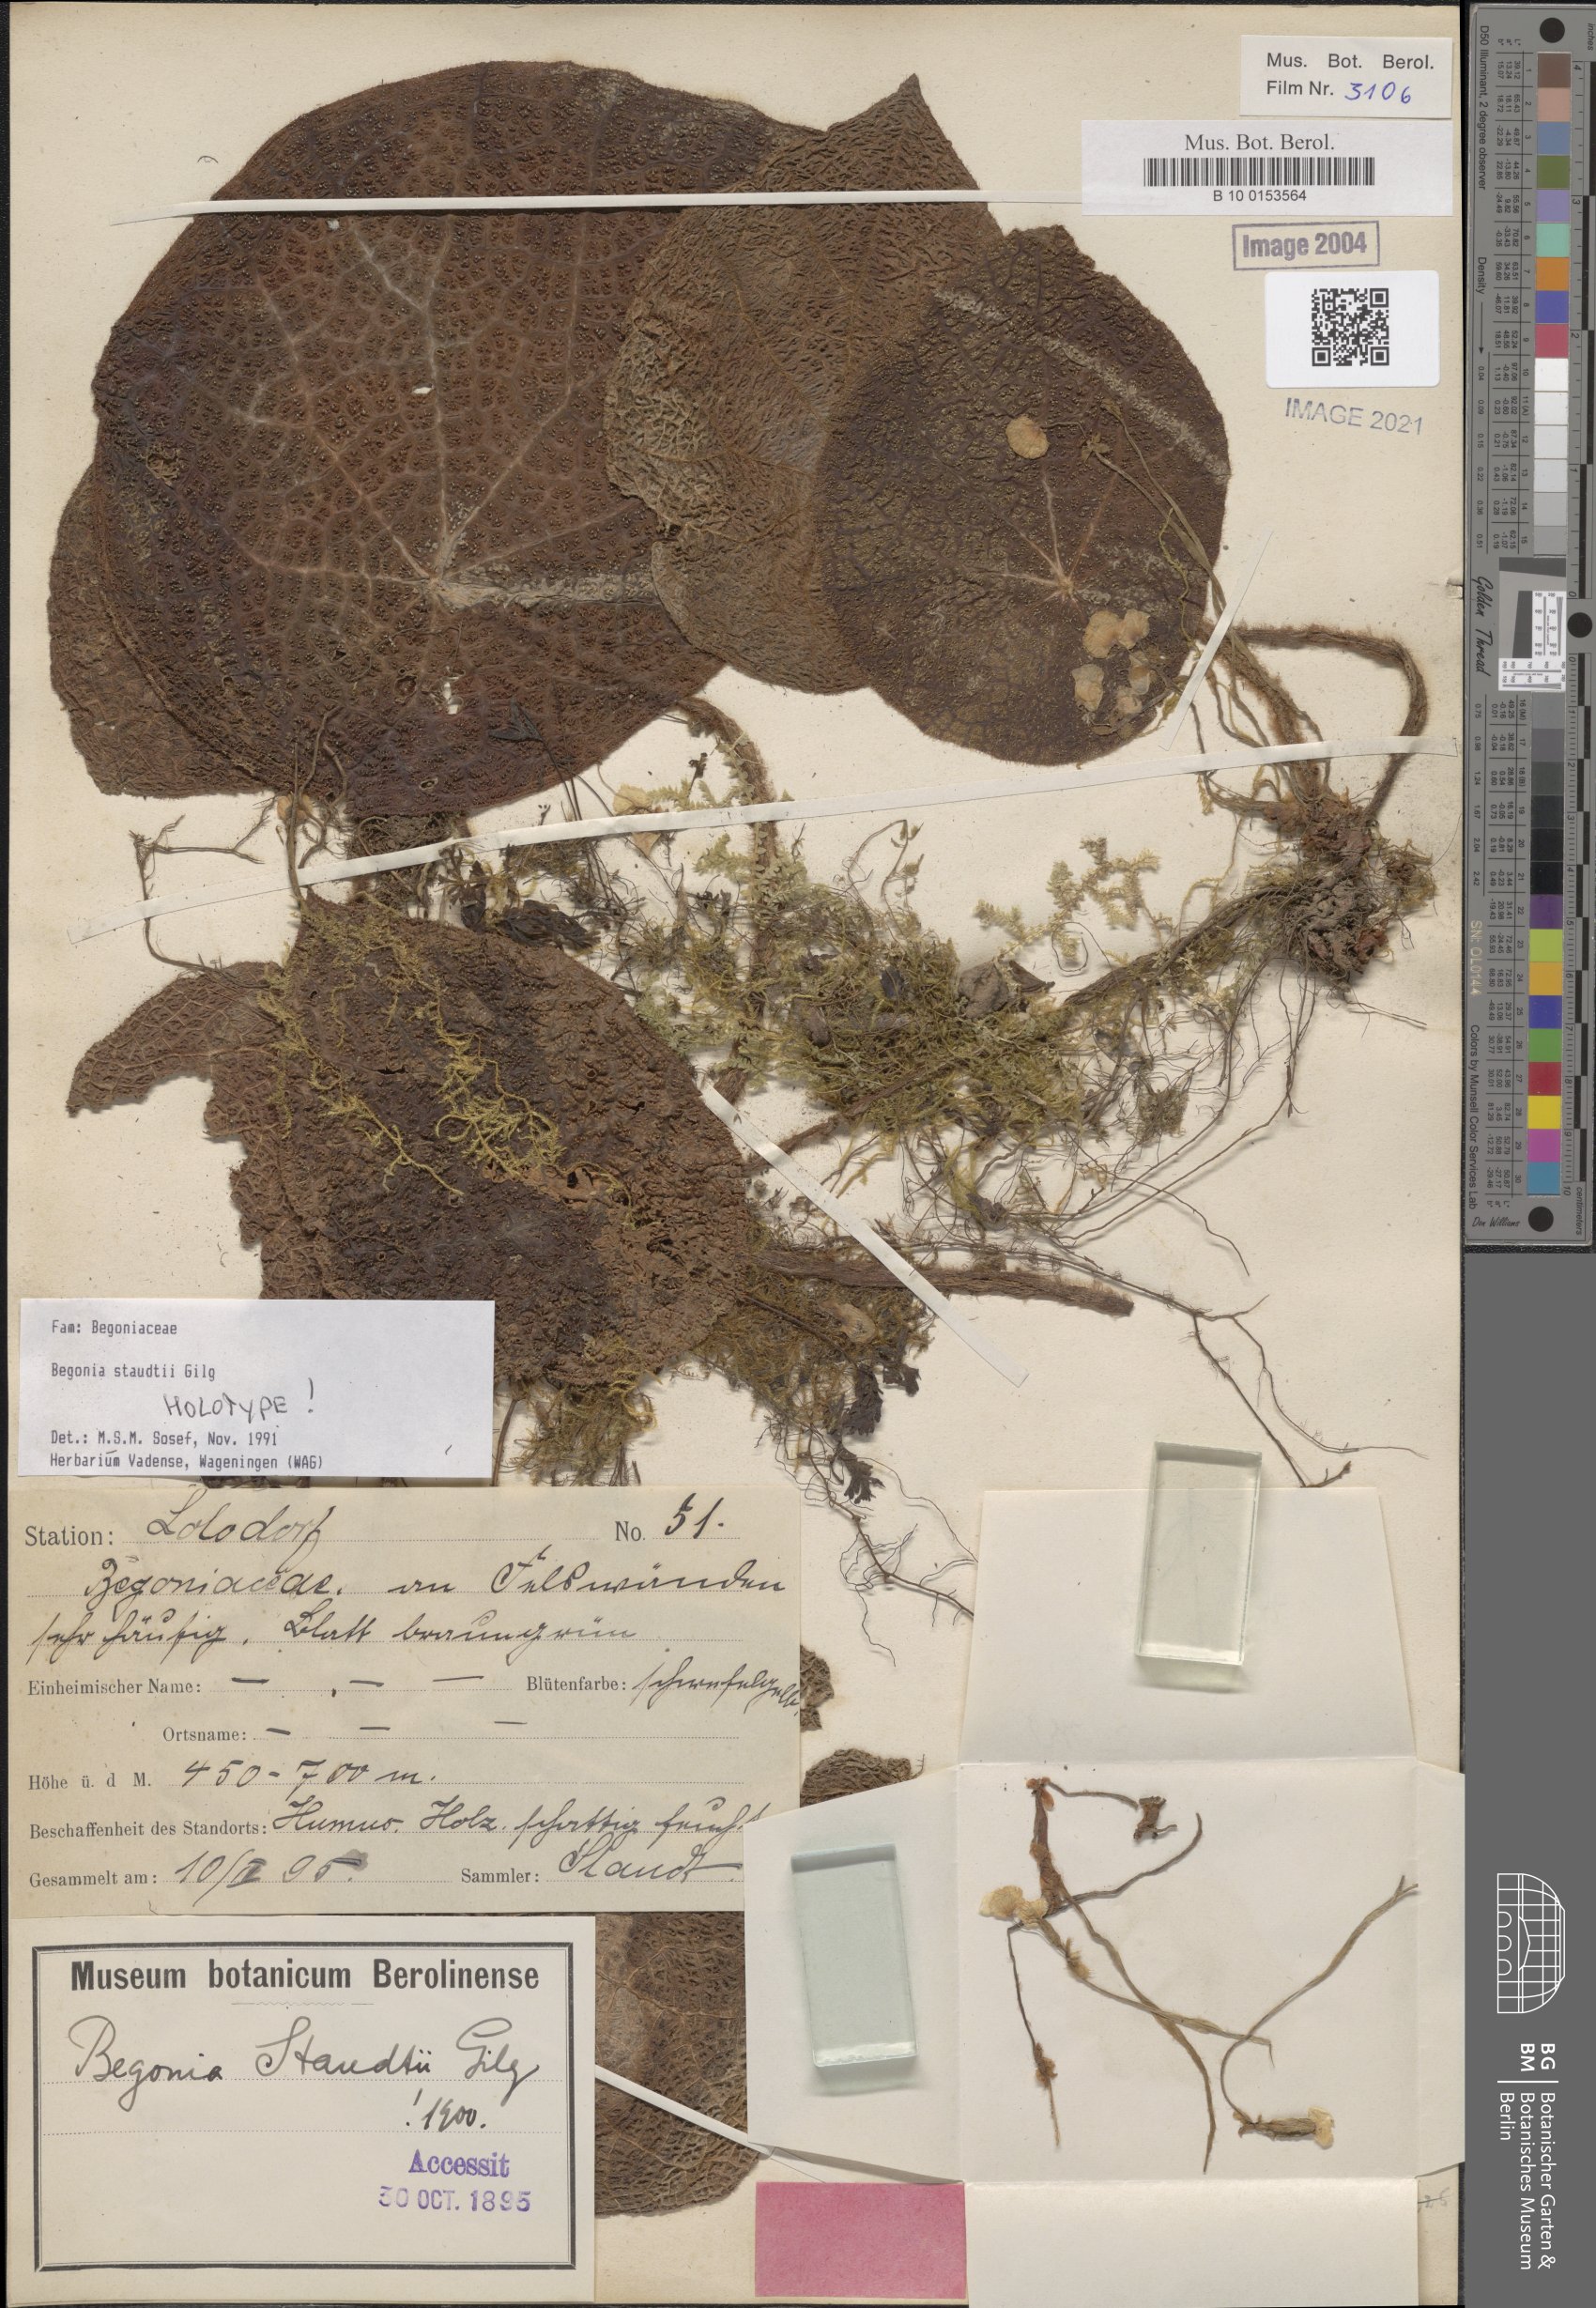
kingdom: Plantae
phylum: Tracheophyta
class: Magnoliopsida
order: Cucurbitales
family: Begoniaceae
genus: Begonia
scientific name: Begonia staudtii
